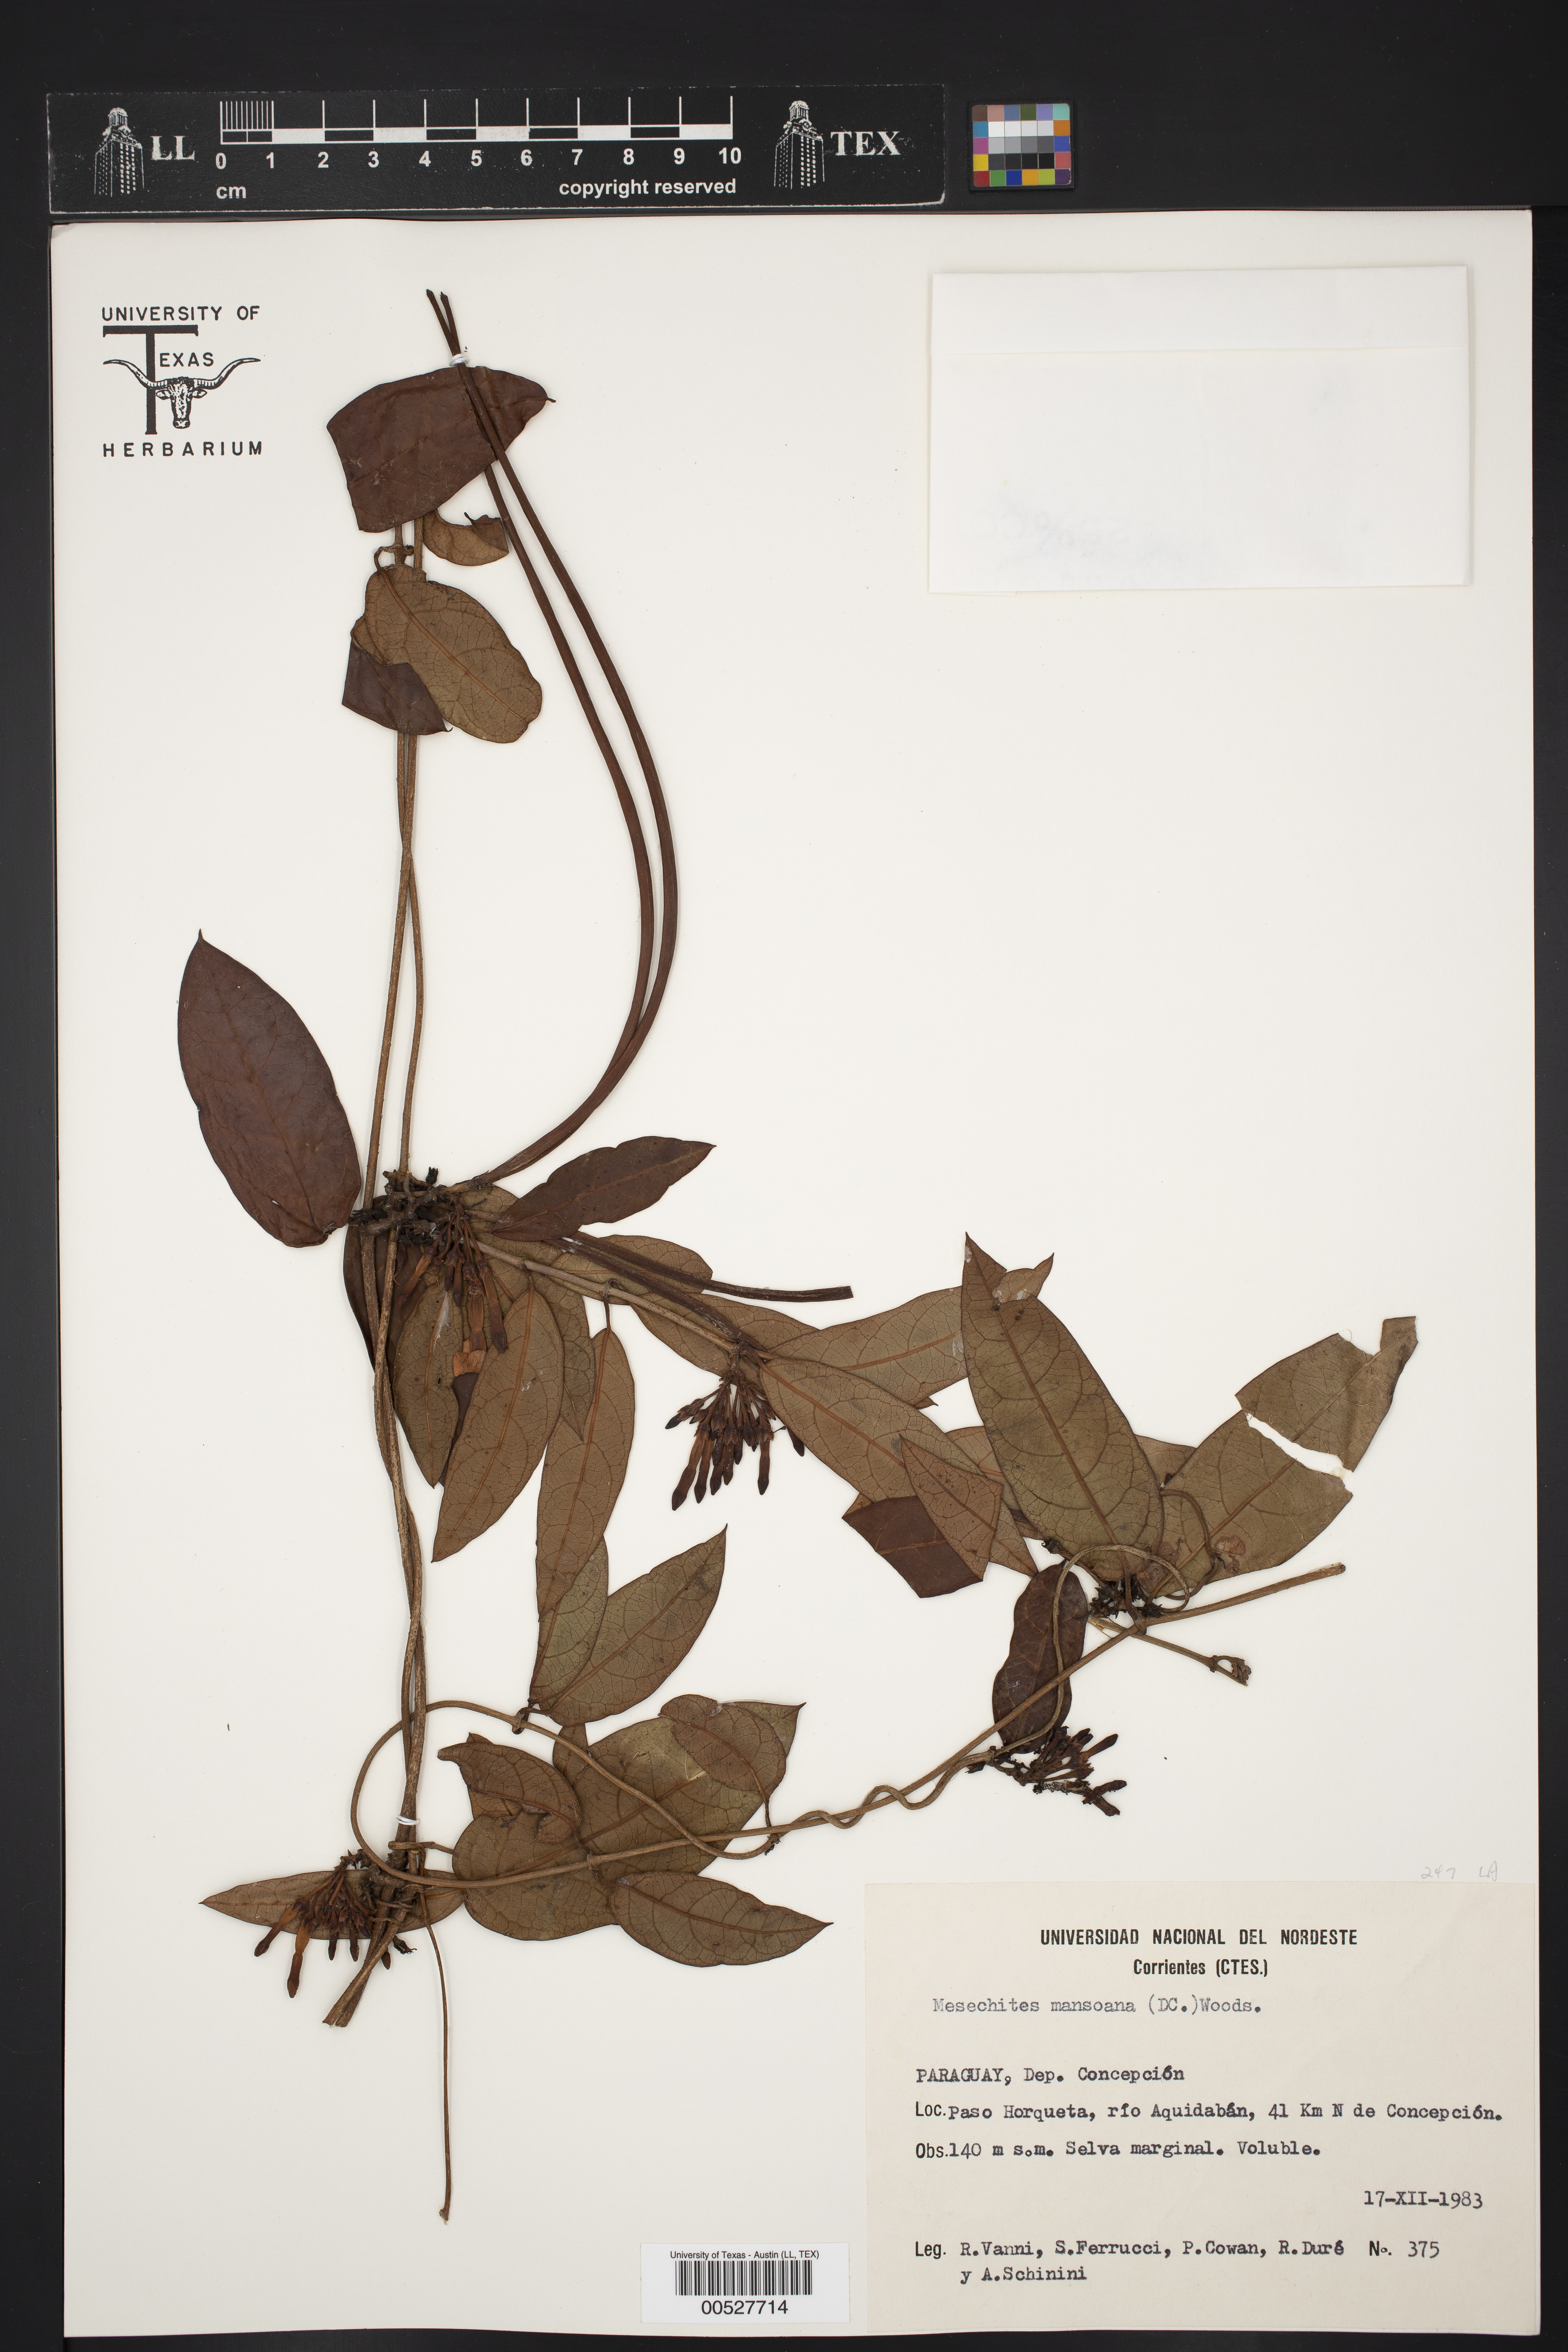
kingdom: Plantae
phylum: Tracheophyta
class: Magnoliopsida
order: Gentianales
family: Apocynaceae
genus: Mesechites
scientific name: Mesechites trifidus
